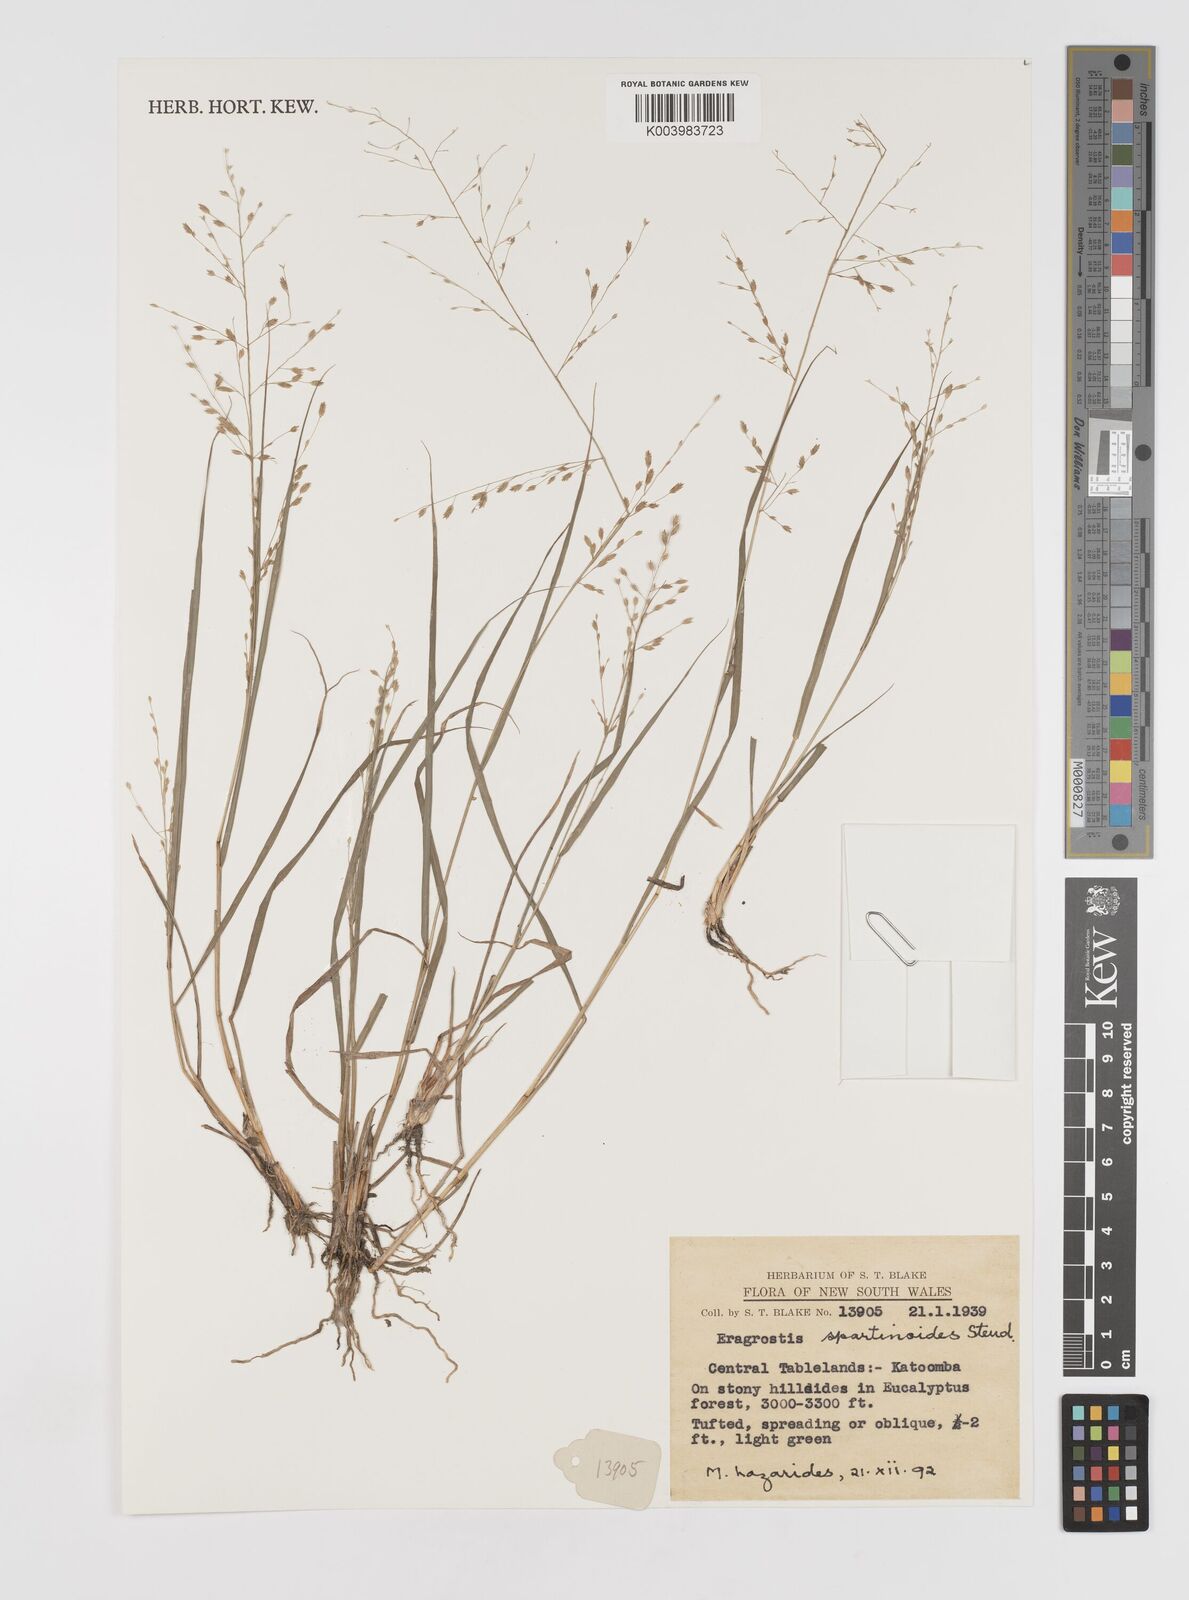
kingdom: Plantae
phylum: Tracheophyta
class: Liliopsida
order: Poales
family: Poaceae
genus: Eragrostis
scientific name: Eragrostis brownii
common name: Lovegrass
